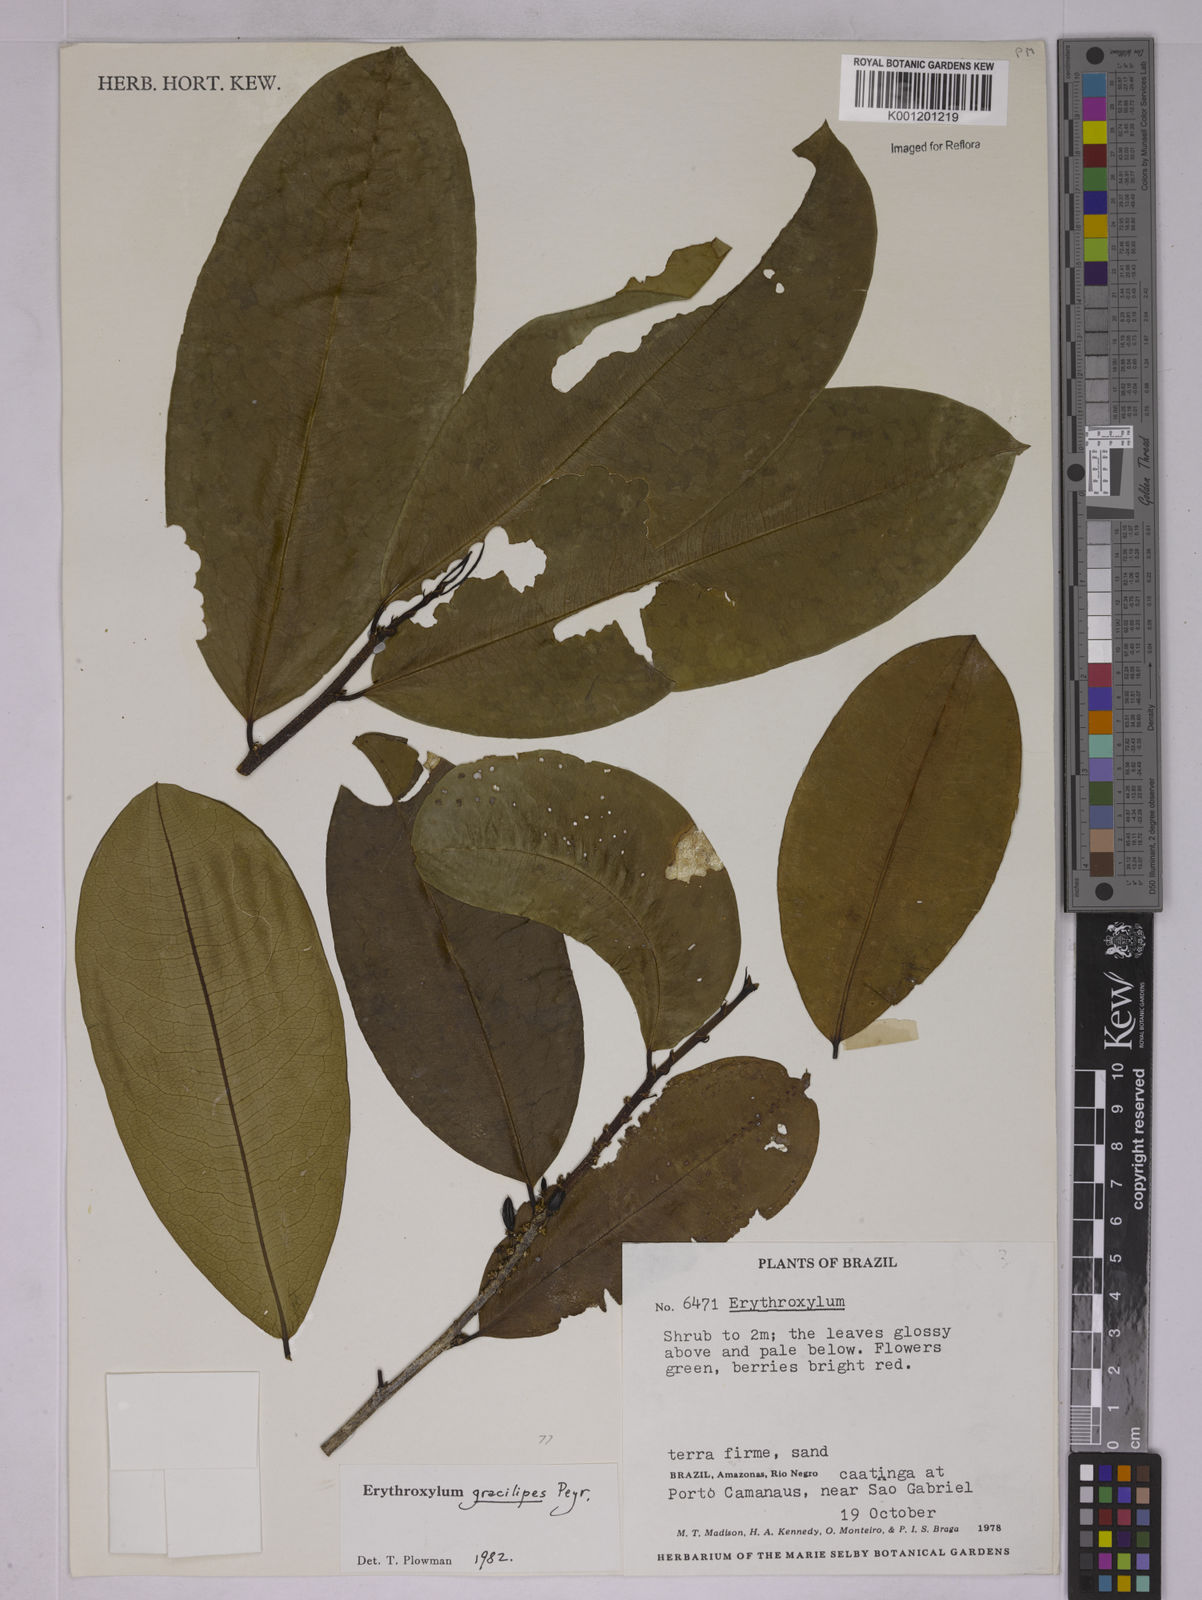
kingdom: Plantae
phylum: Tracheophyta
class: Magnoliopsida
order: Malpighiales
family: Erythroxylaceae
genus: Erythroxylum
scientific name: Erythroxylum gracilipes
